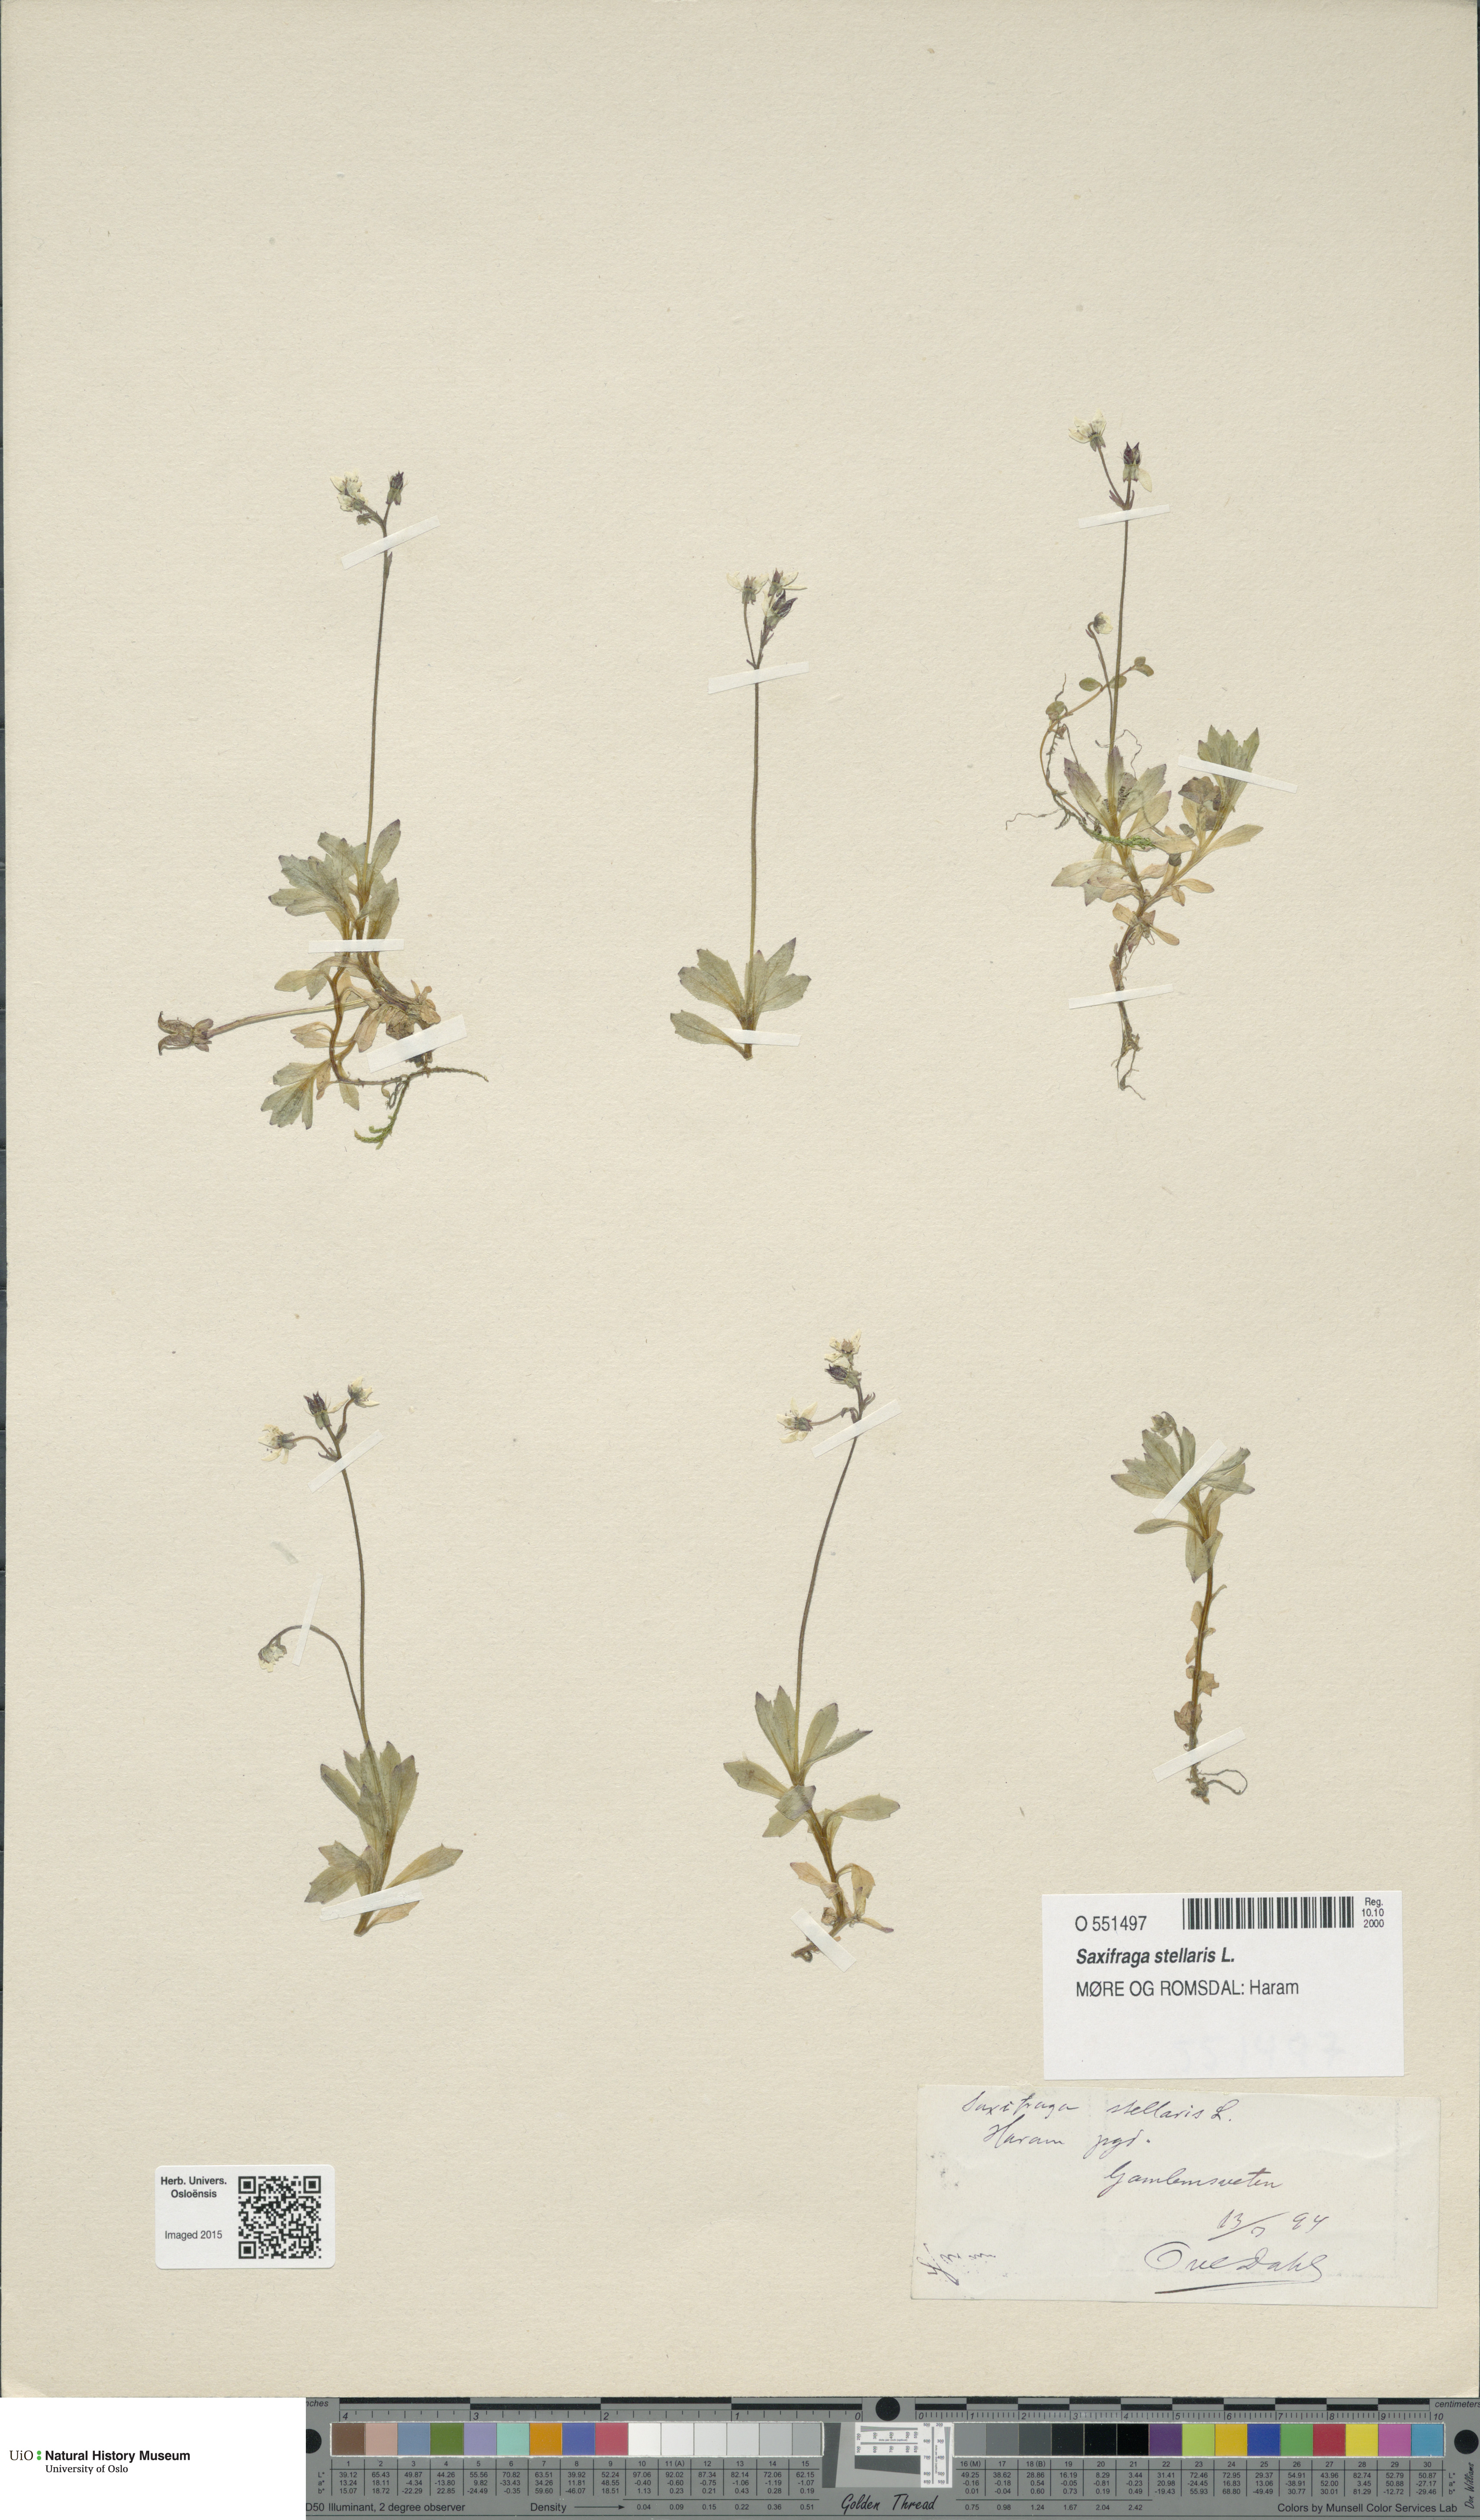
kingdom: Plantae
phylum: Tracheophyta
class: Magnoliopsida
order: Saxifragales
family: Saxifragaceae
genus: Micranthes
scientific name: Micranthes stellaris
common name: Starry saxifrage
